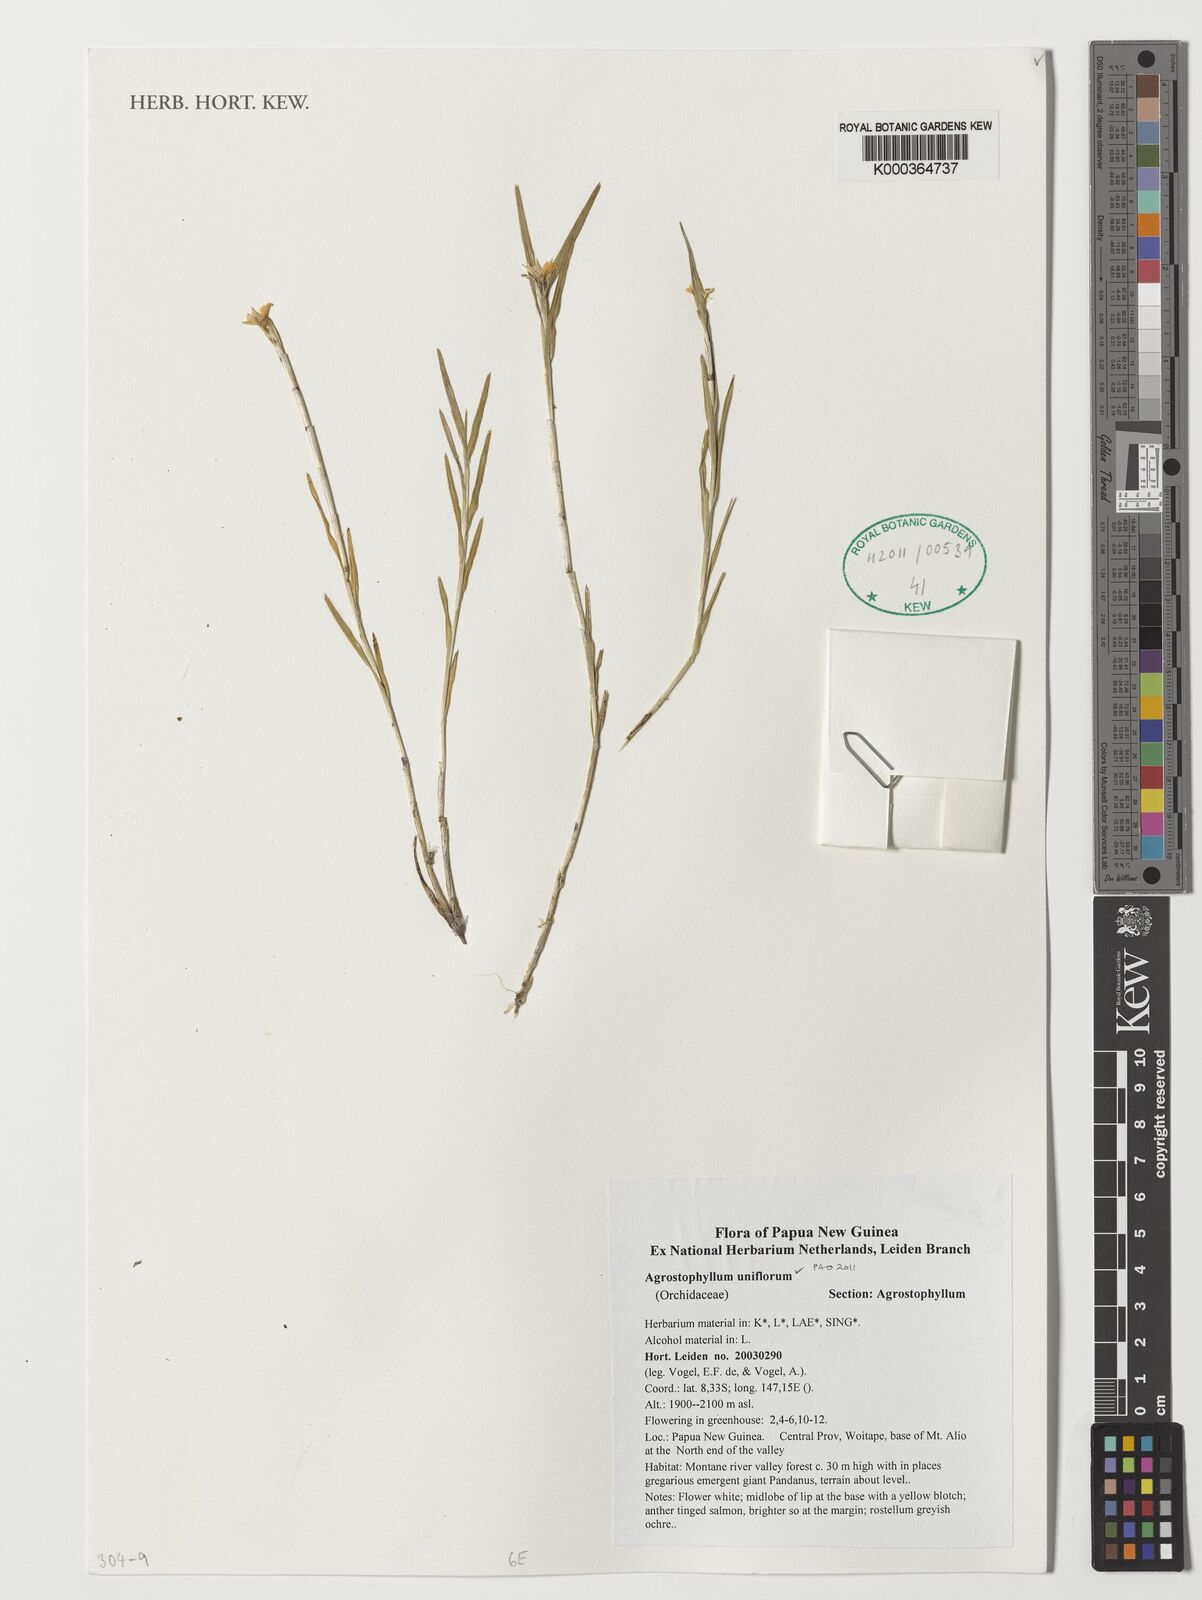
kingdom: Plantae
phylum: Tracheophyta
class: Liliopsida
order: Asparagales
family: Orchidaceae
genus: Agrostophyllum
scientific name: Agrostophyllum uniflorum
